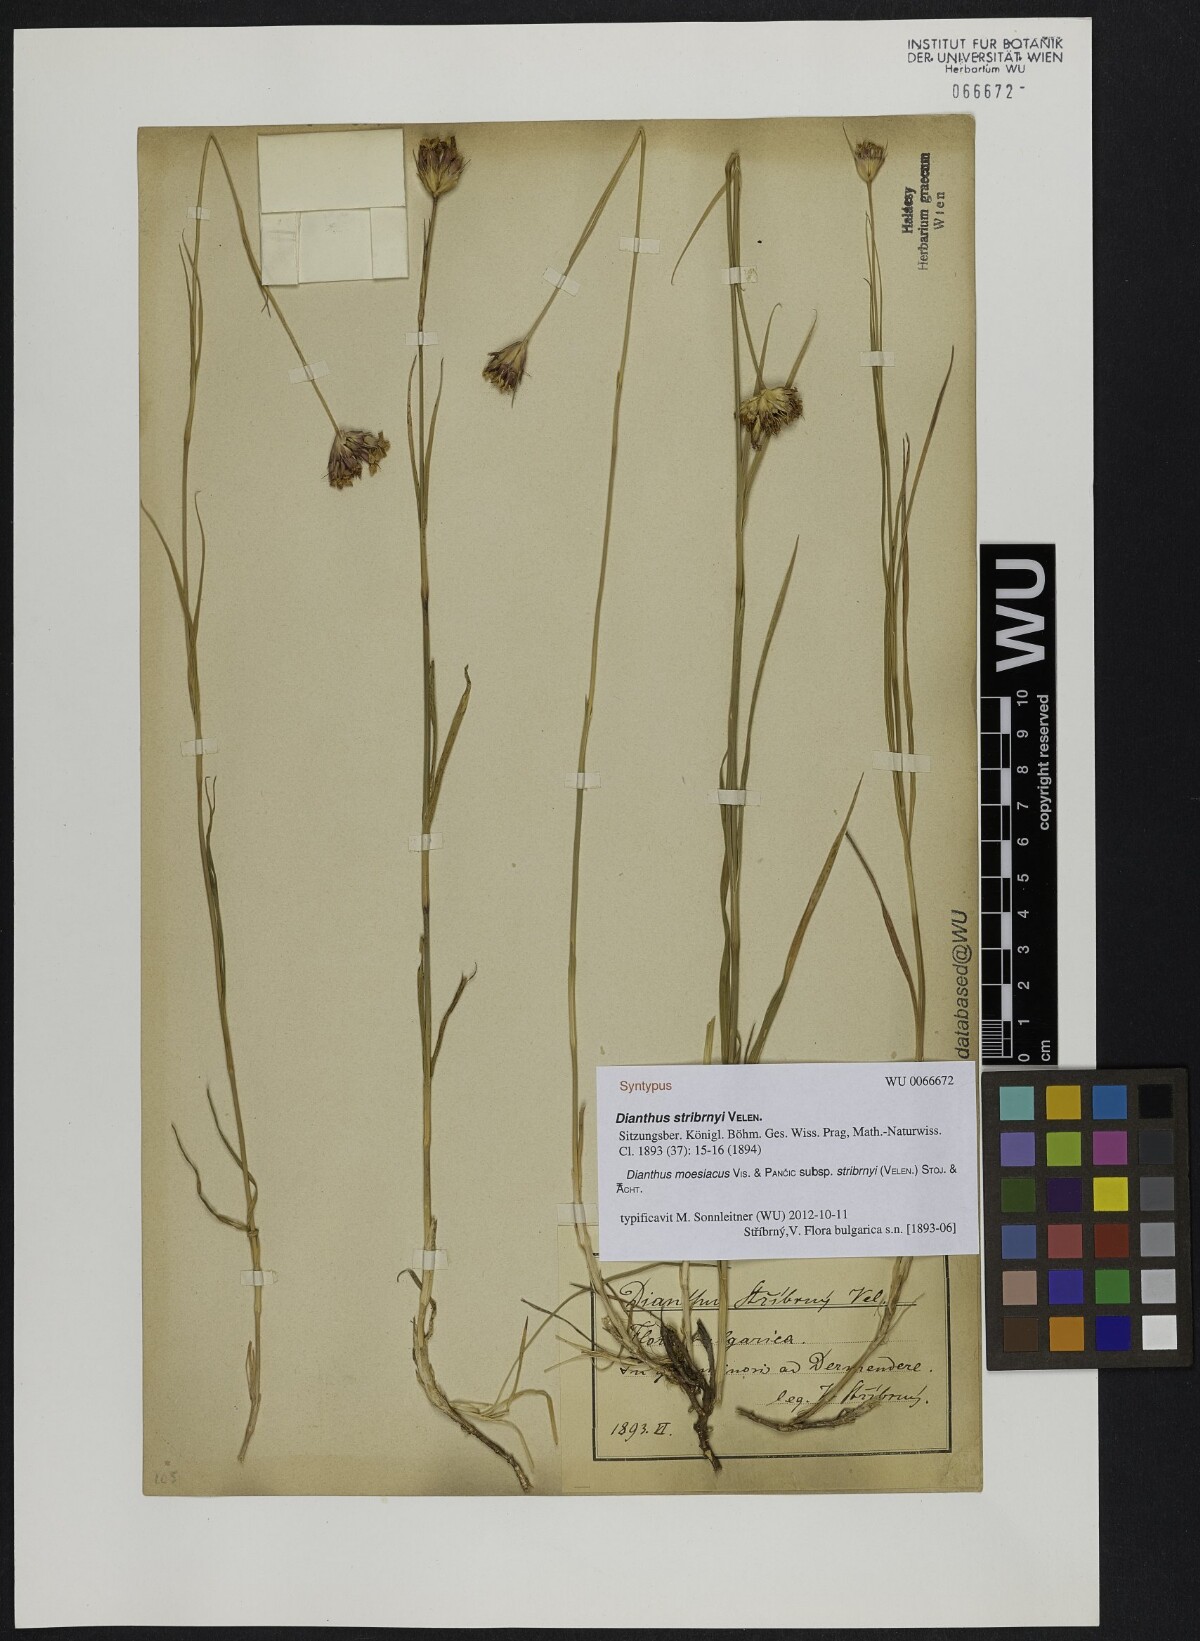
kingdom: Plantae
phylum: Tracheophyta
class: Magnoliopsida
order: Caryophyllales
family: Caryophyllaceae
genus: Dianthus
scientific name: Dianthus stribrnyi
